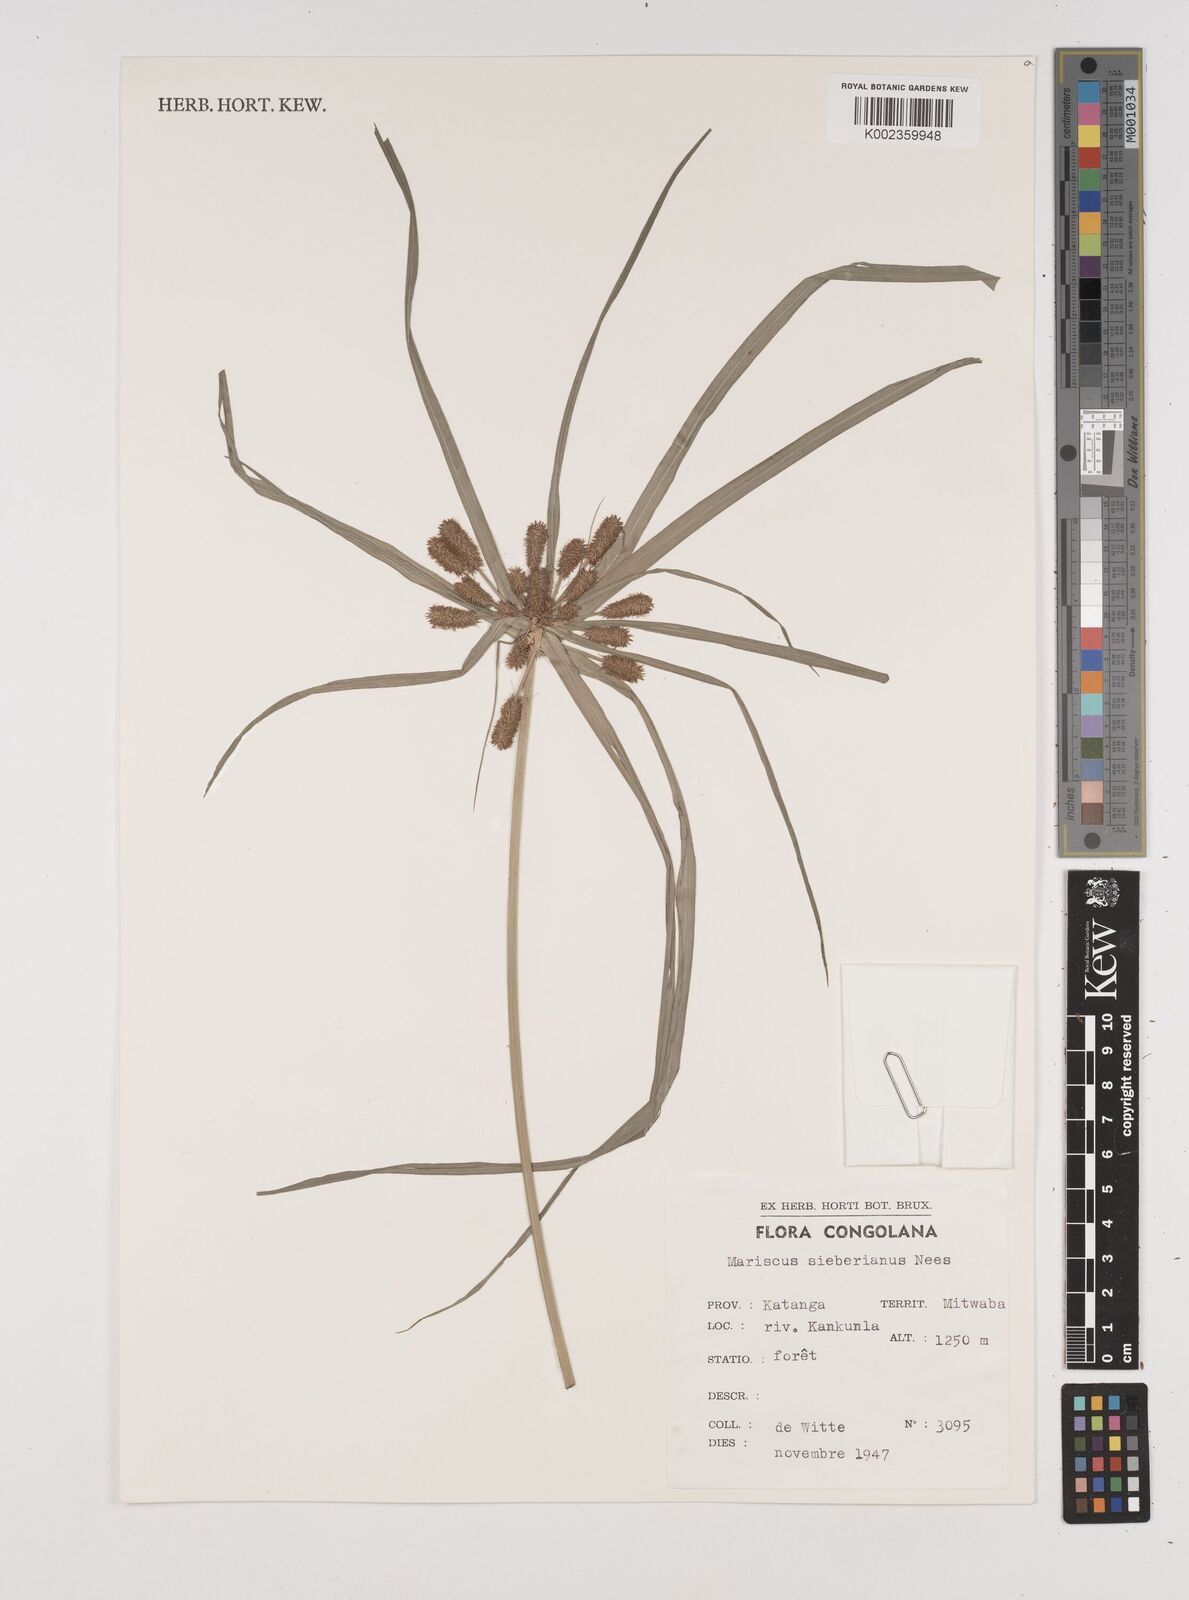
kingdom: Plantae
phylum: Tracheophyta
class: Liliopsida
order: Poales
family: Cyperaceae
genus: Cyperus
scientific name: Cyperus cyperoides
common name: Pacific island flat sedge
